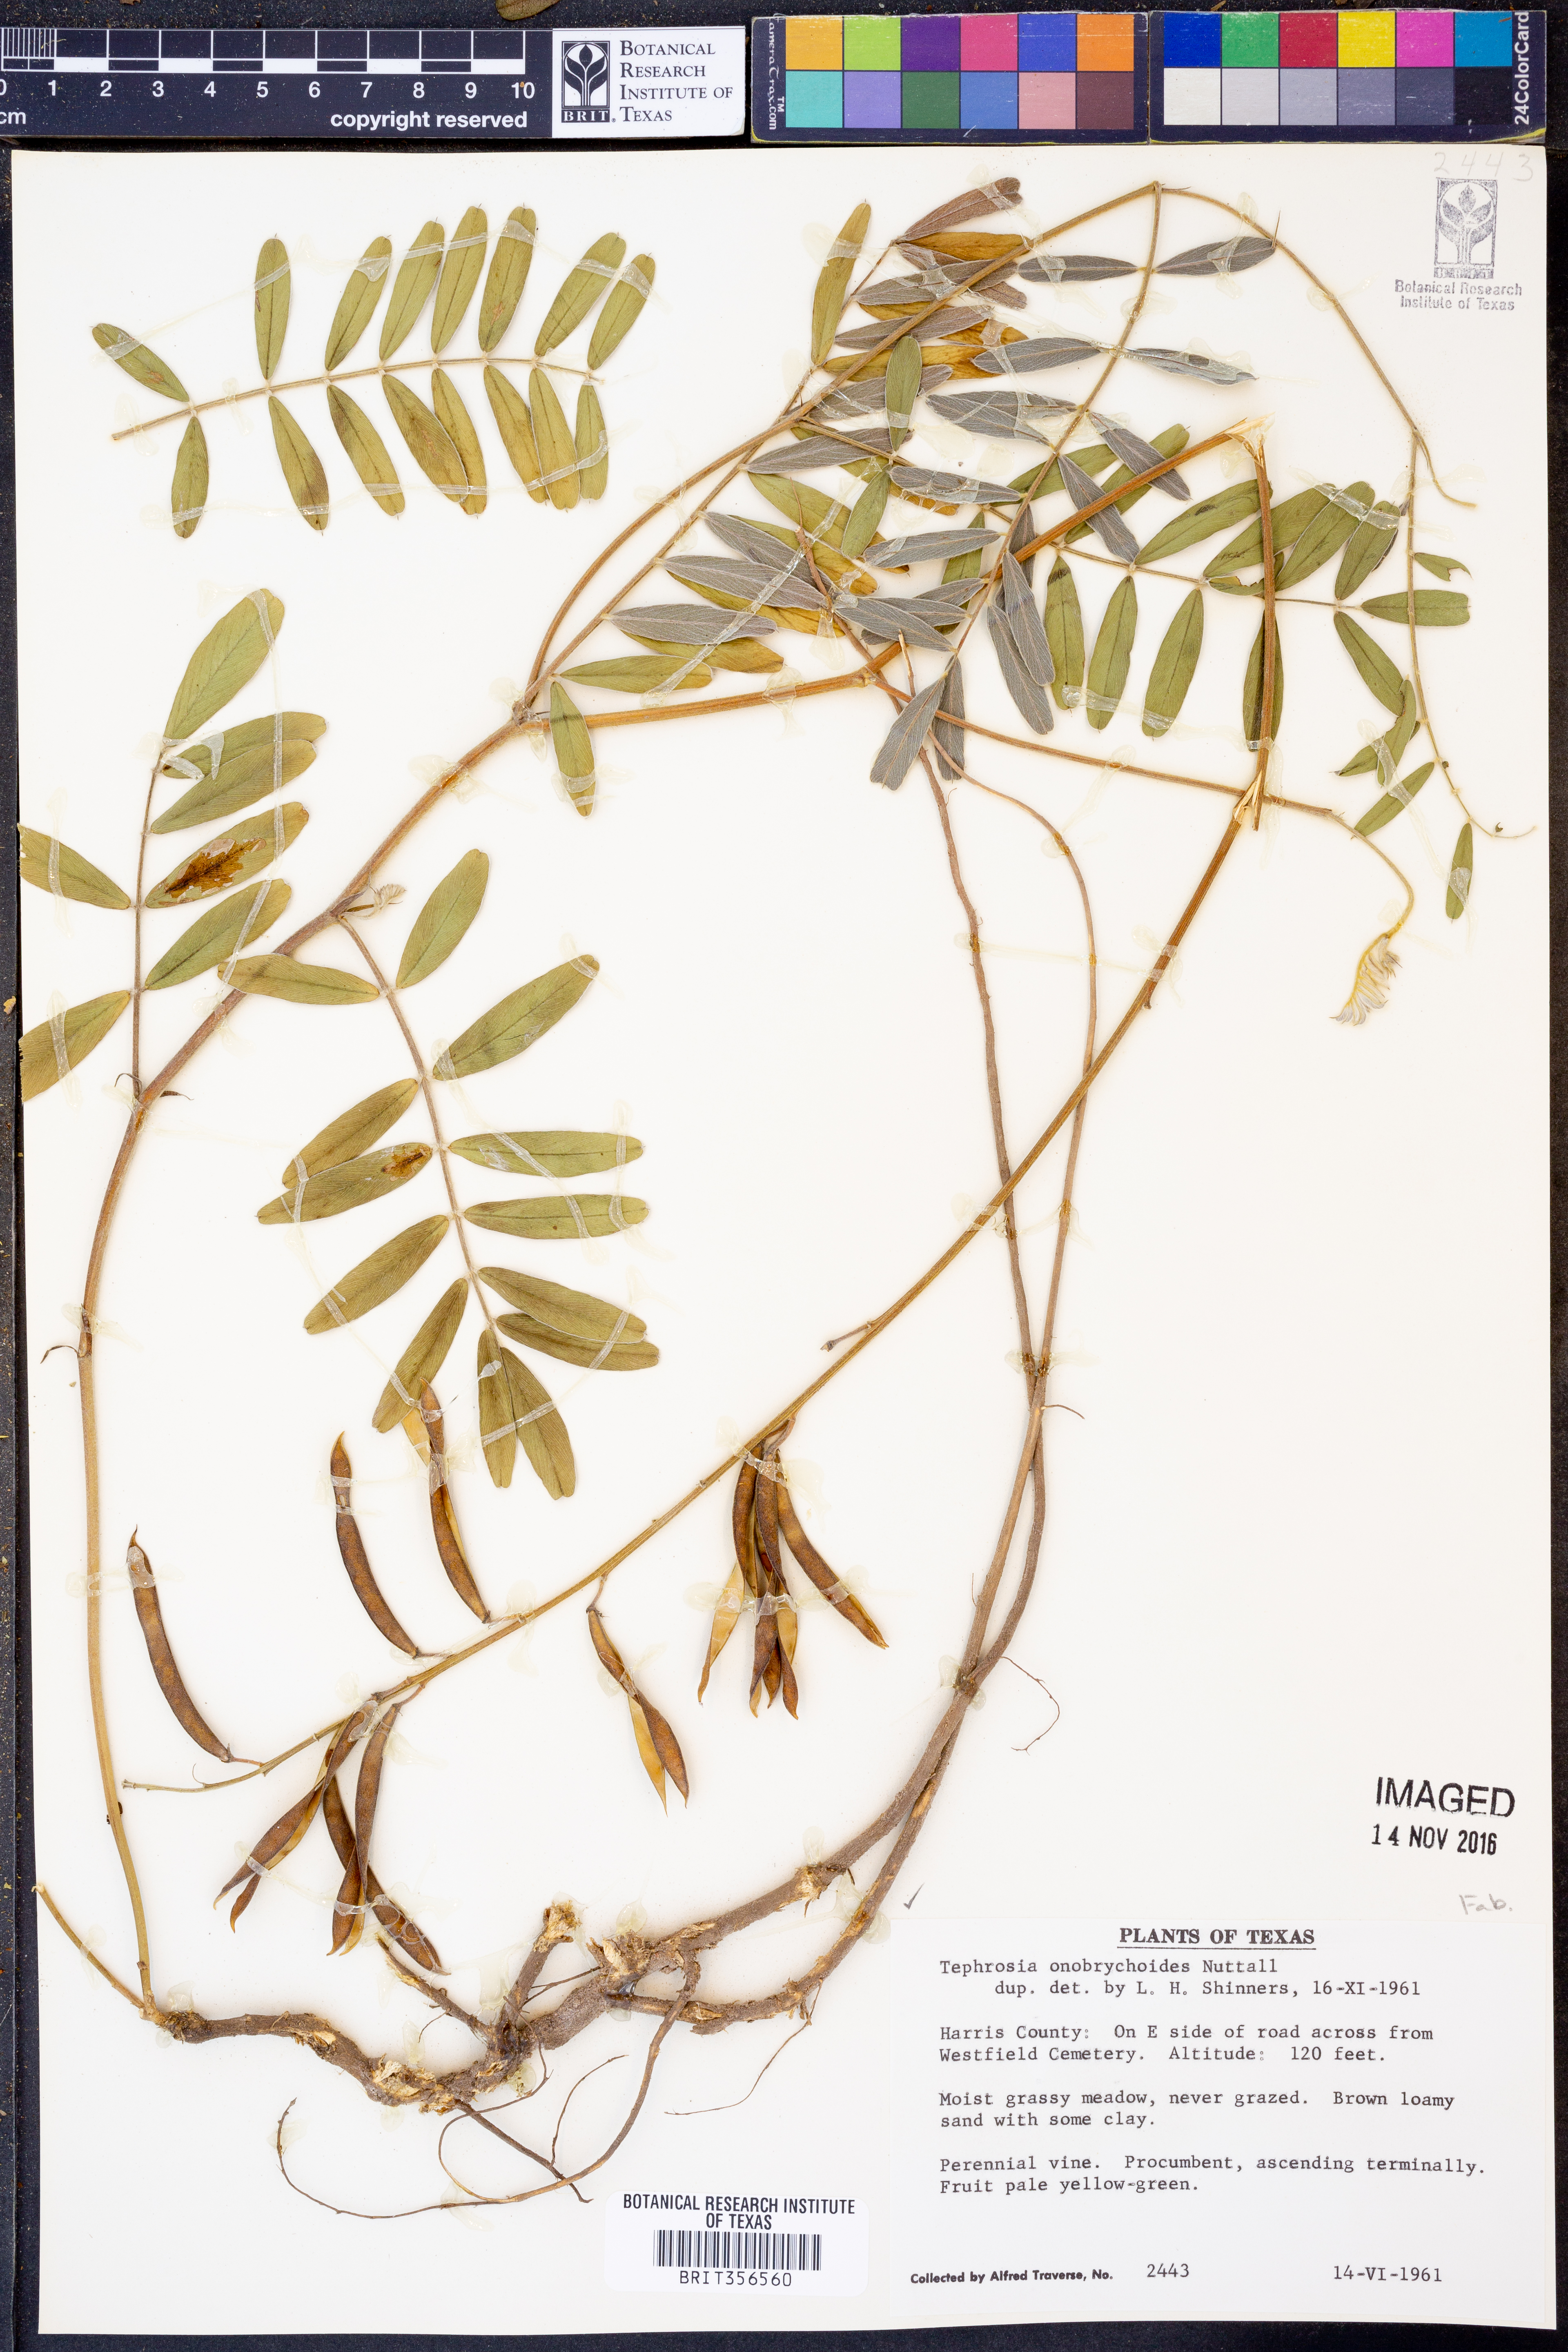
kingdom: Plantae
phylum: Tracheophyta
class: Magnoliopsida
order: Fabales
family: Fabaceae
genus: Tephrosia
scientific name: Tephrosia onobrychoides
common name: Multi-bloom hoary-pea
